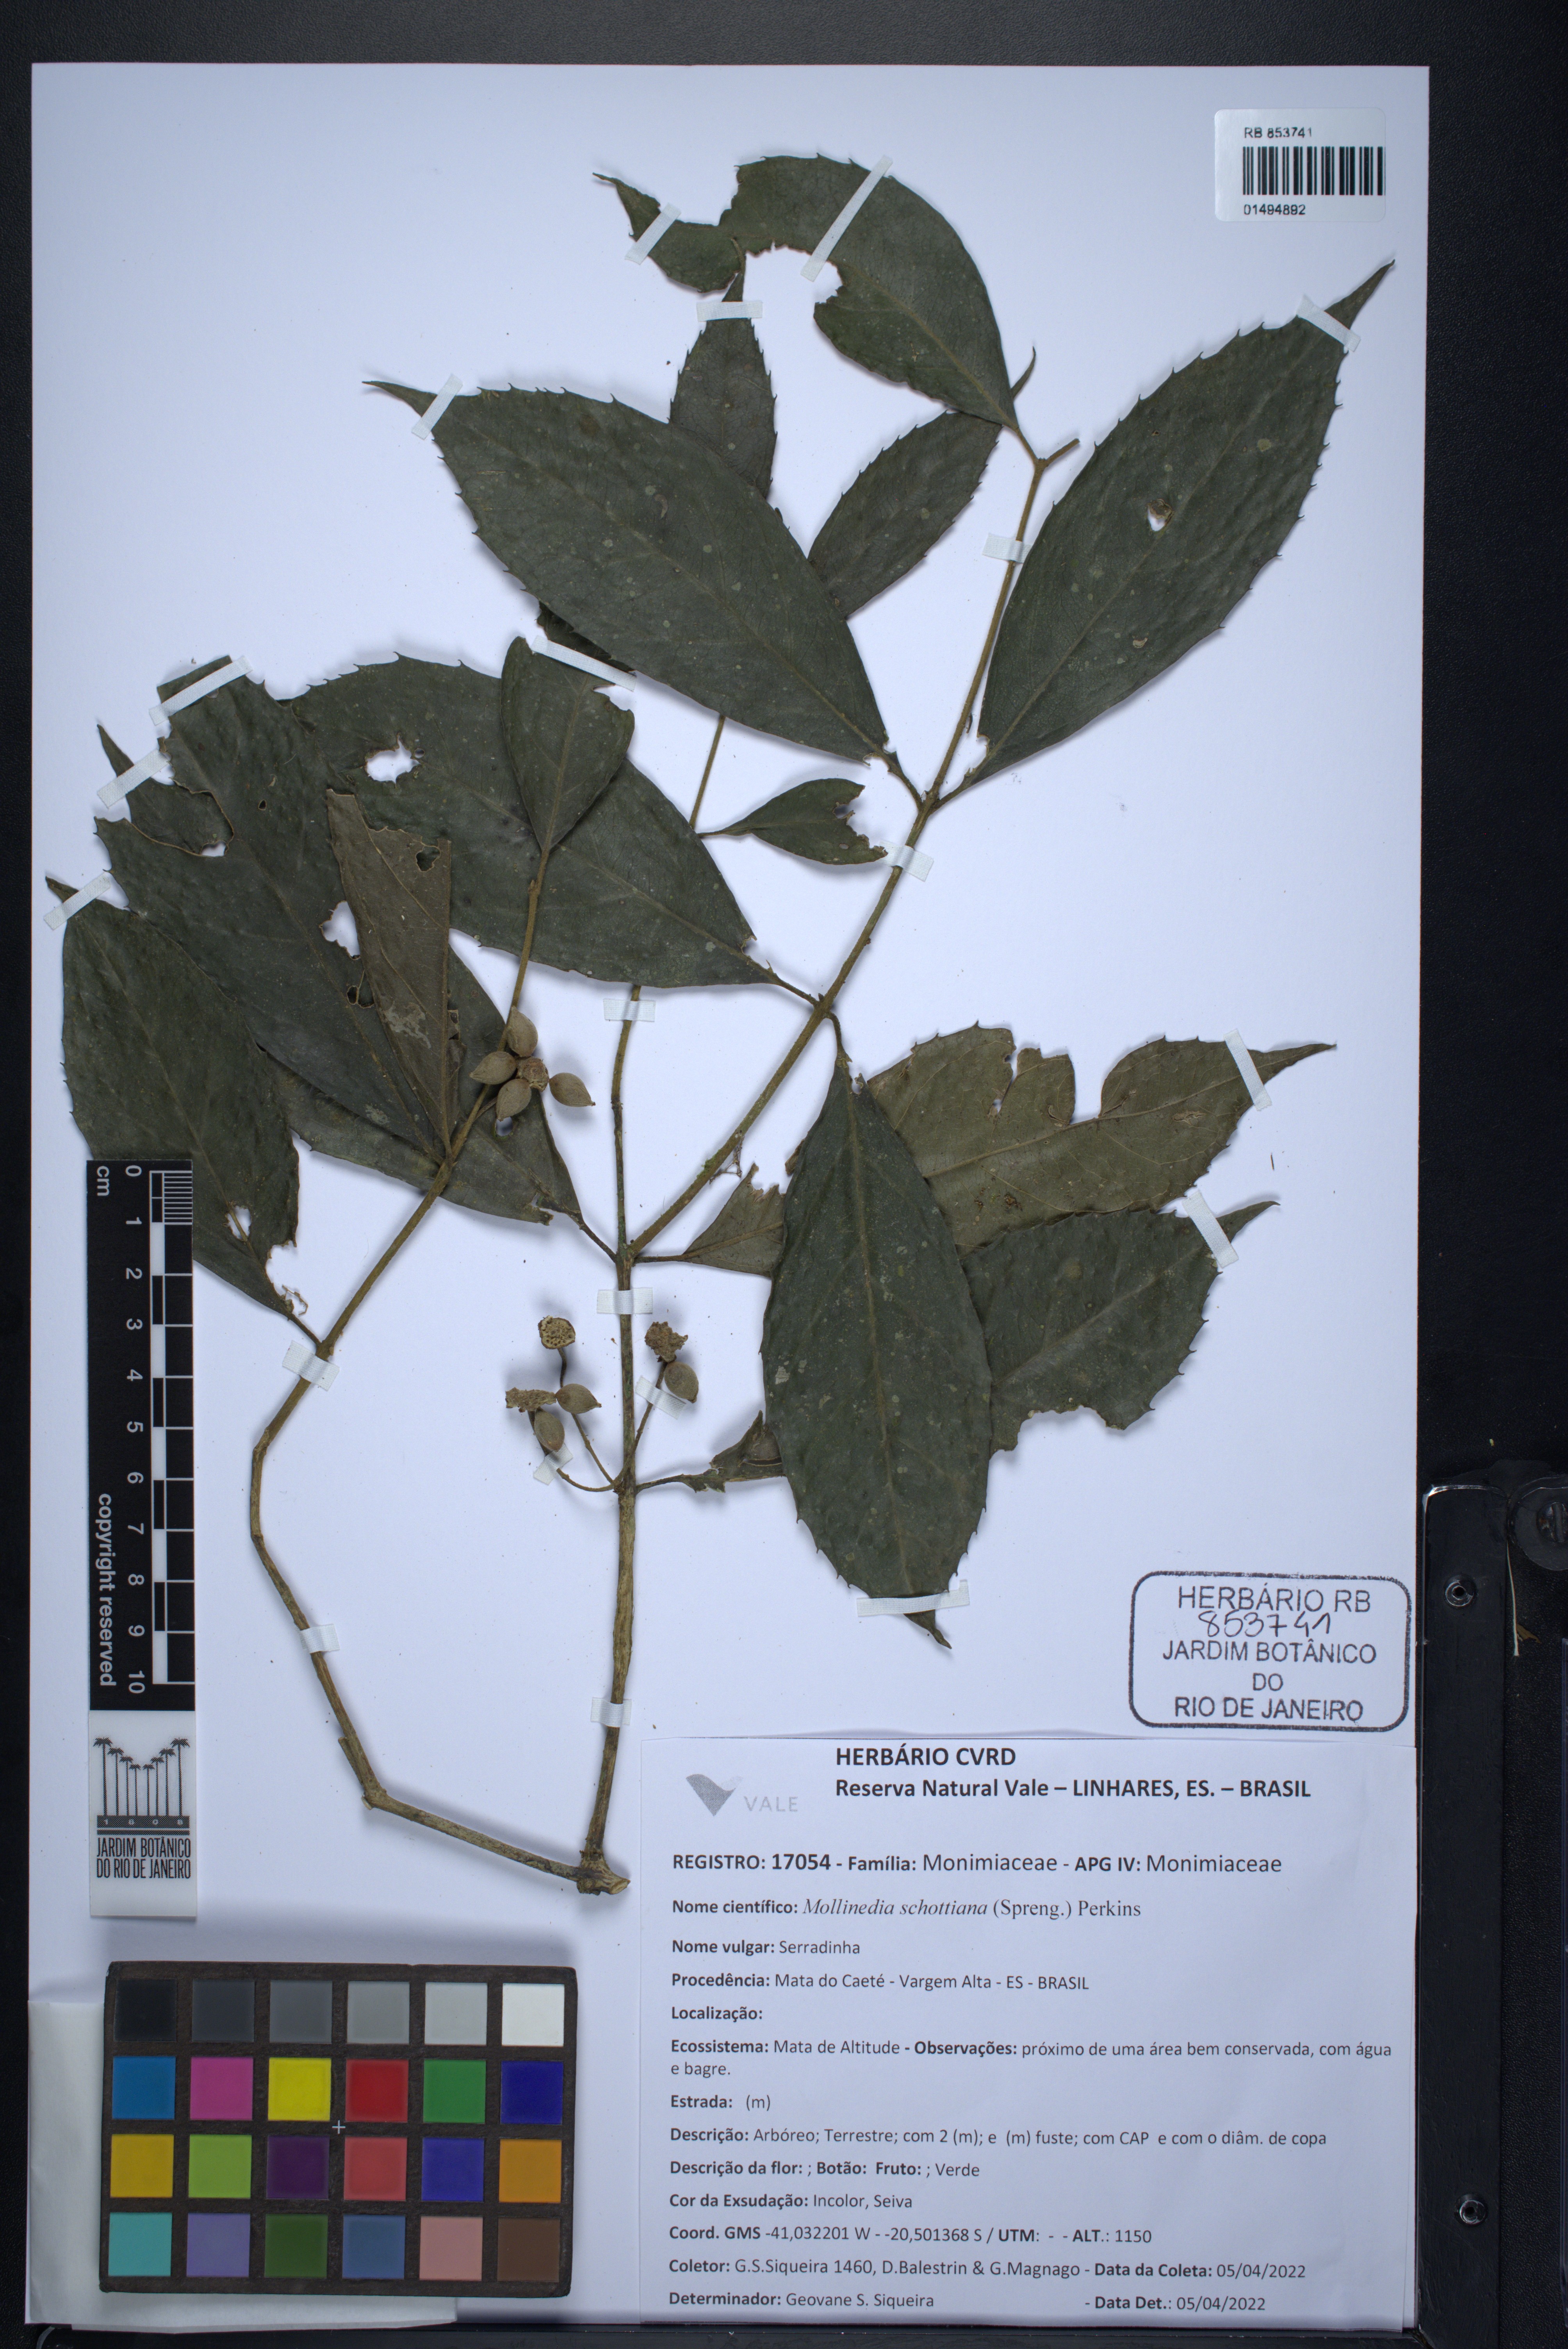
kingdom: Plantae
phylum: Tracheophyta
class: Magnoliopsida
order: Laurales
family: Monimiaceae
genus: Mollinedia
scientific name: Mollinedia umbellata
